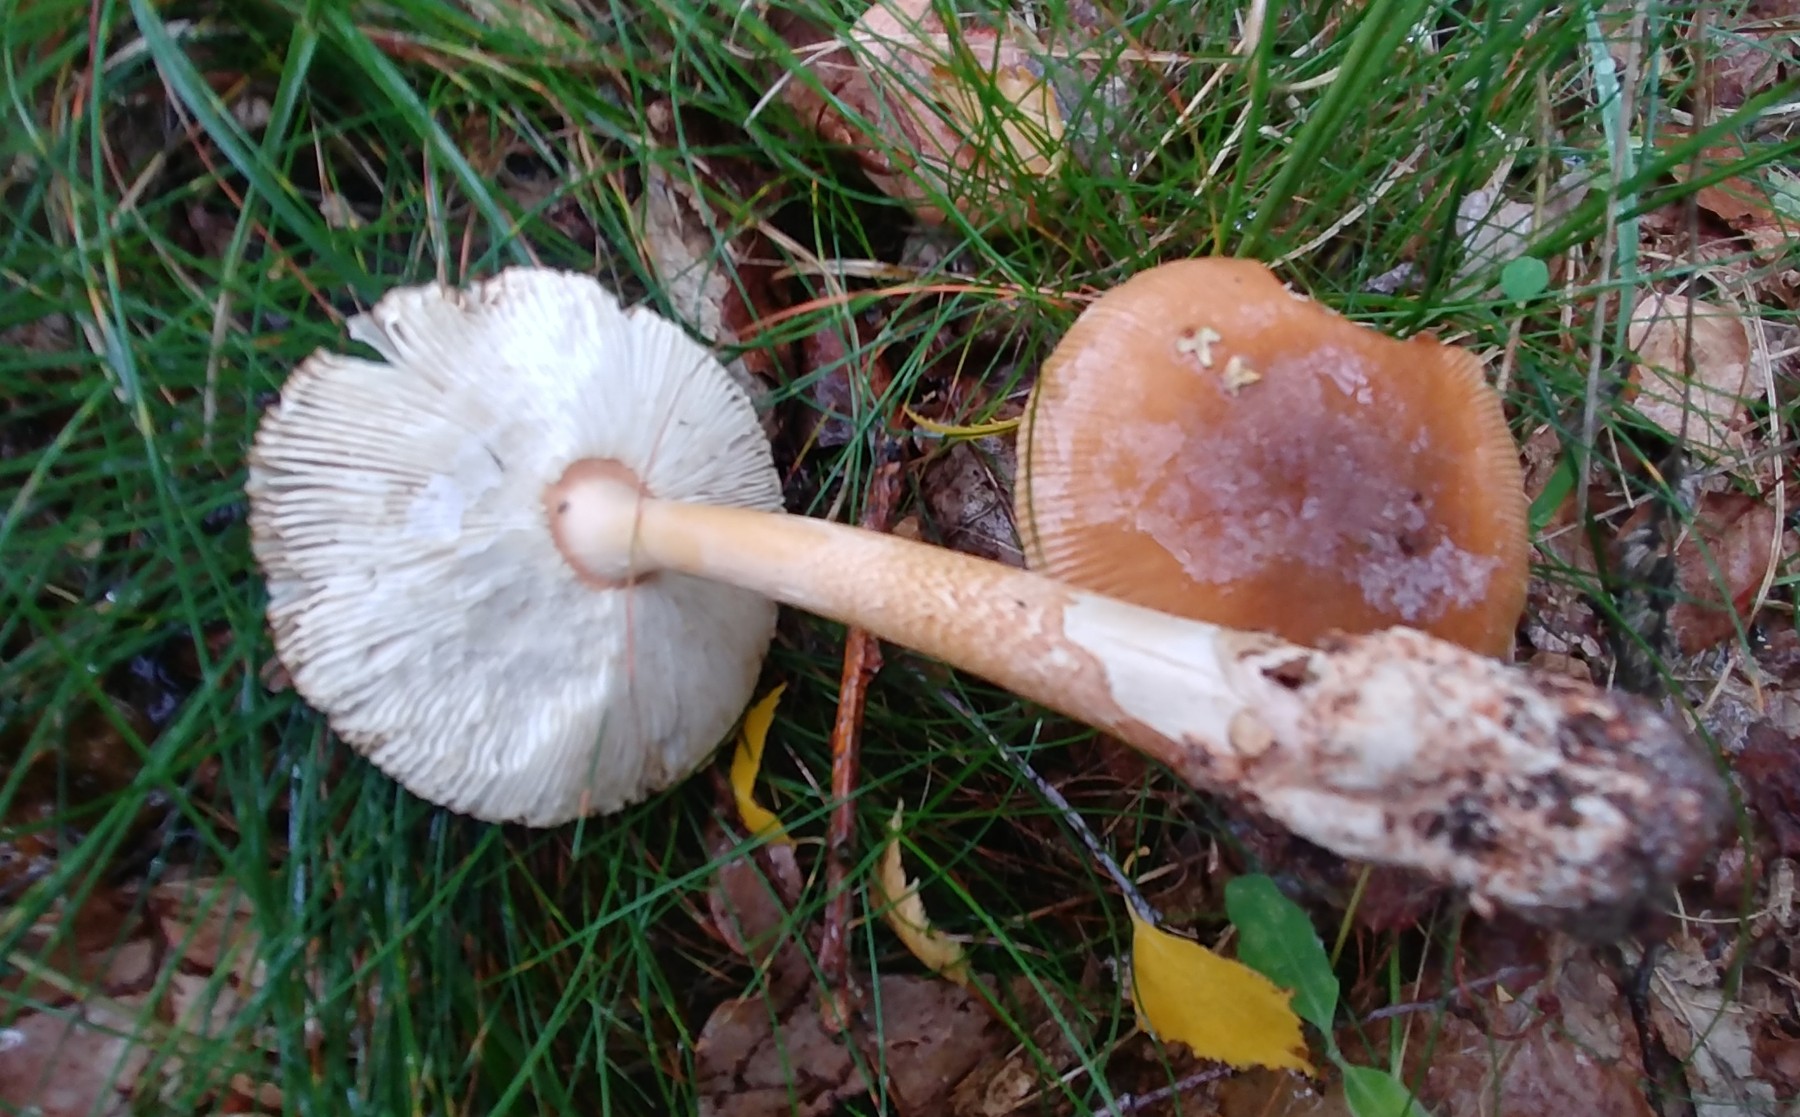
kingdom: Fungi
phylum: Basidiomycota
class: Agaricomycetes
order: Agaricales
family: Amanitaceae
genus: Amanita
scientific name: Amanita fulva
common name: brun kam-fluesvamp
